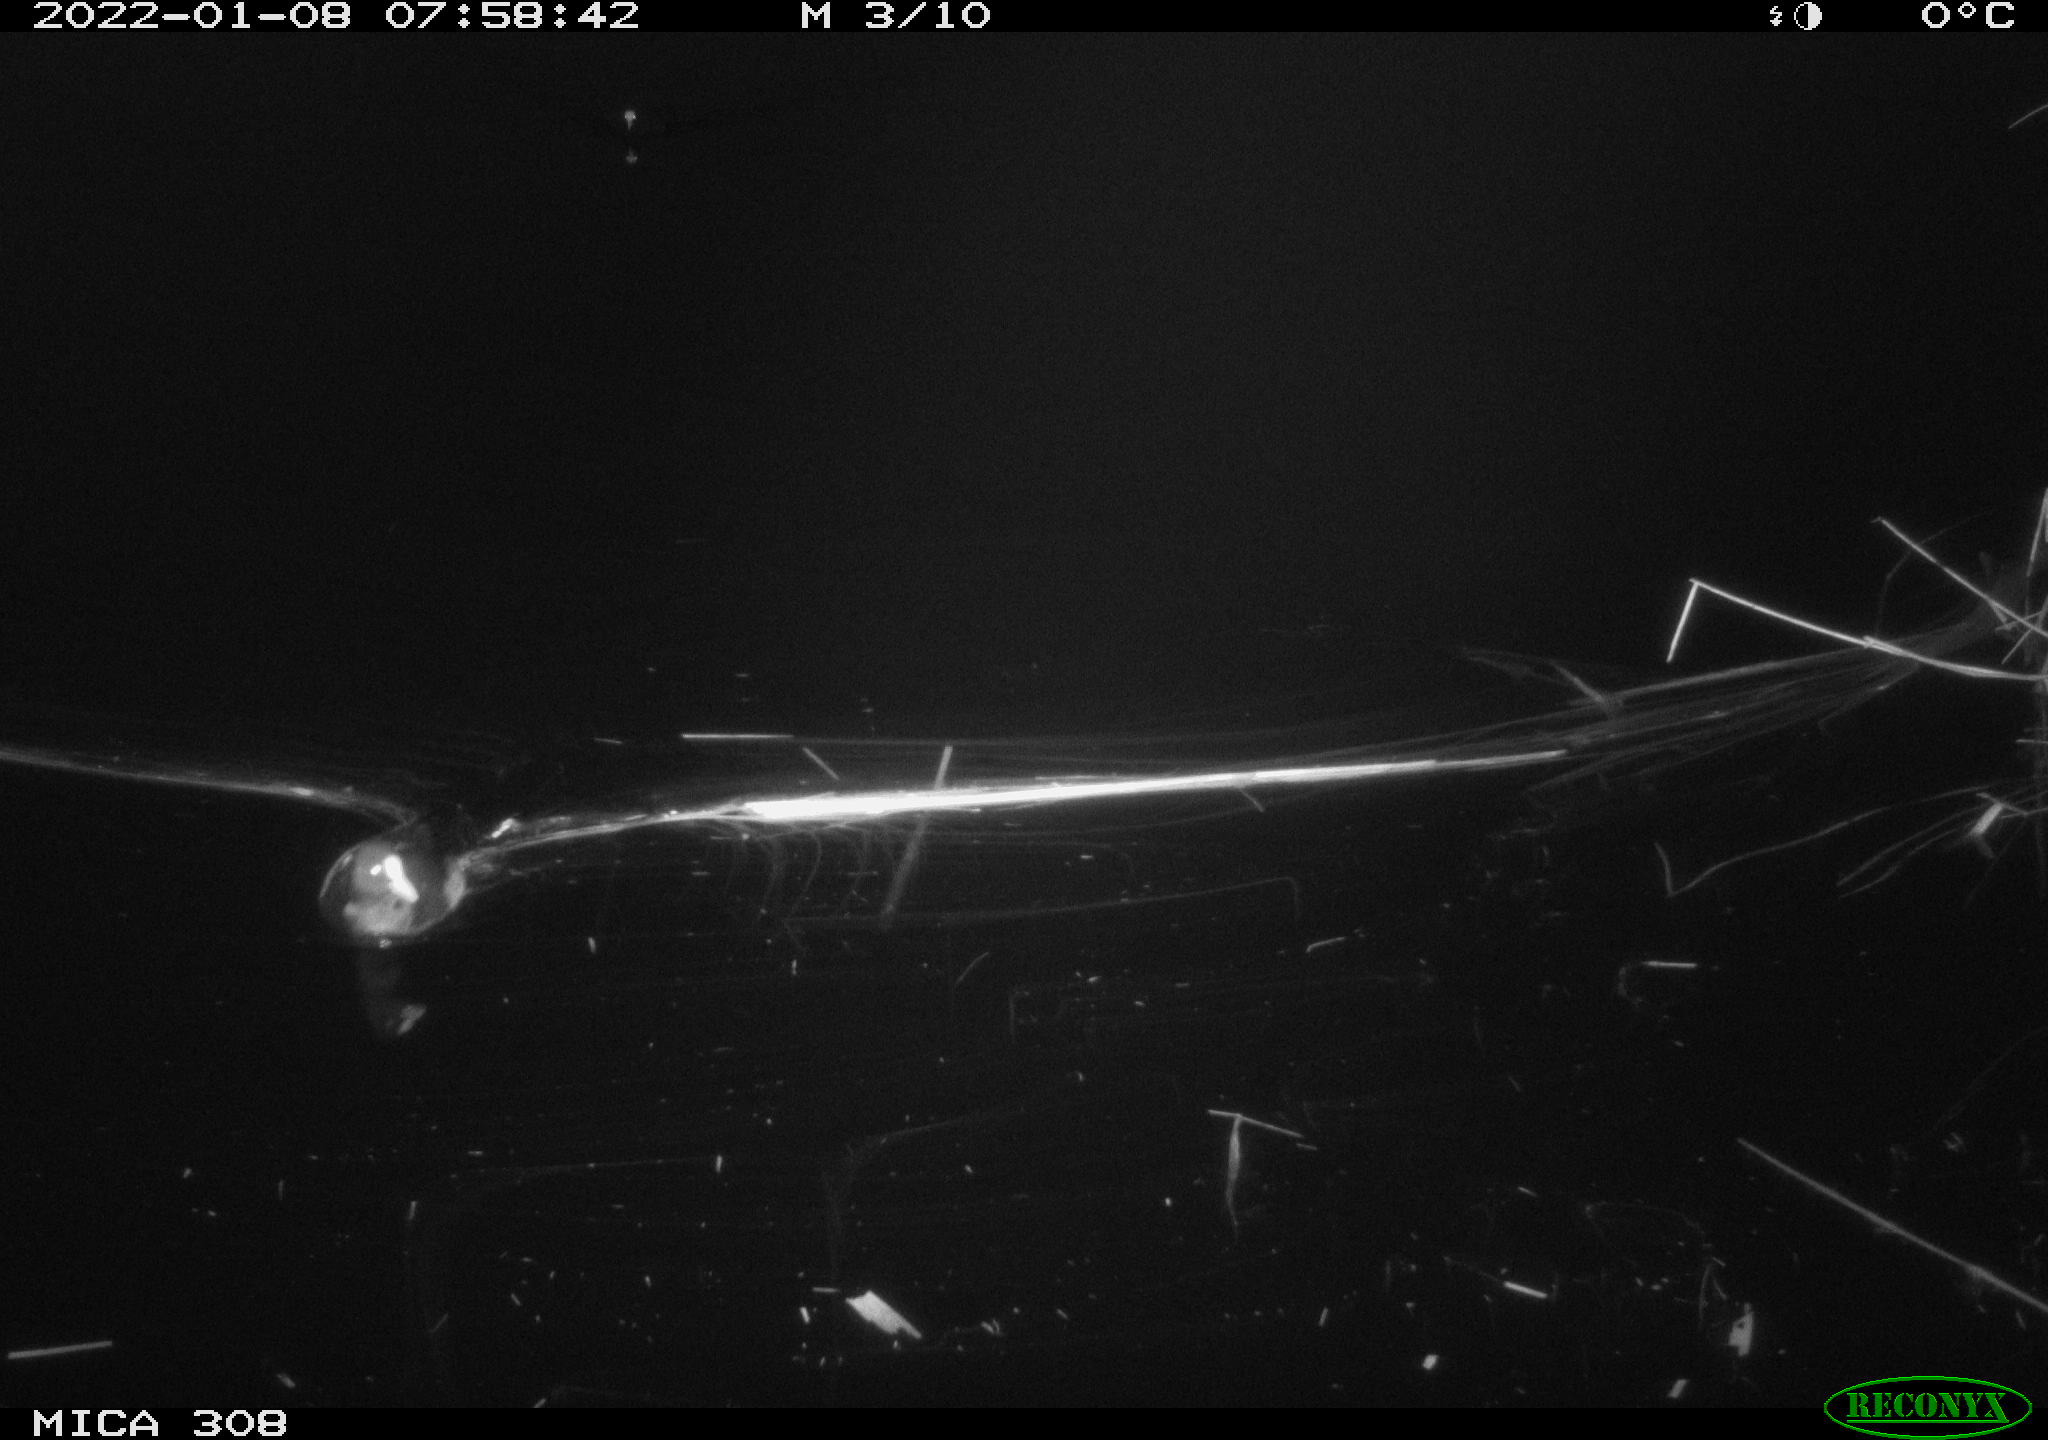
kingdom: Animalia
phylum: Chordata
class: Aves
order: Anseriformes
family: Anatidae
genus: Anas
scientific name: Anas
